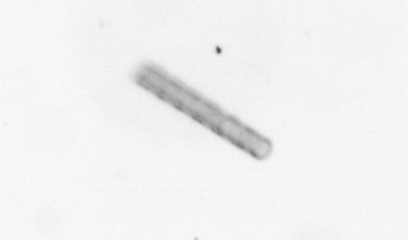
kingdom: Chromista
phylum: Ochrophyta
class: Bacillariophyceae
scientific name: Bacillariophyceae
